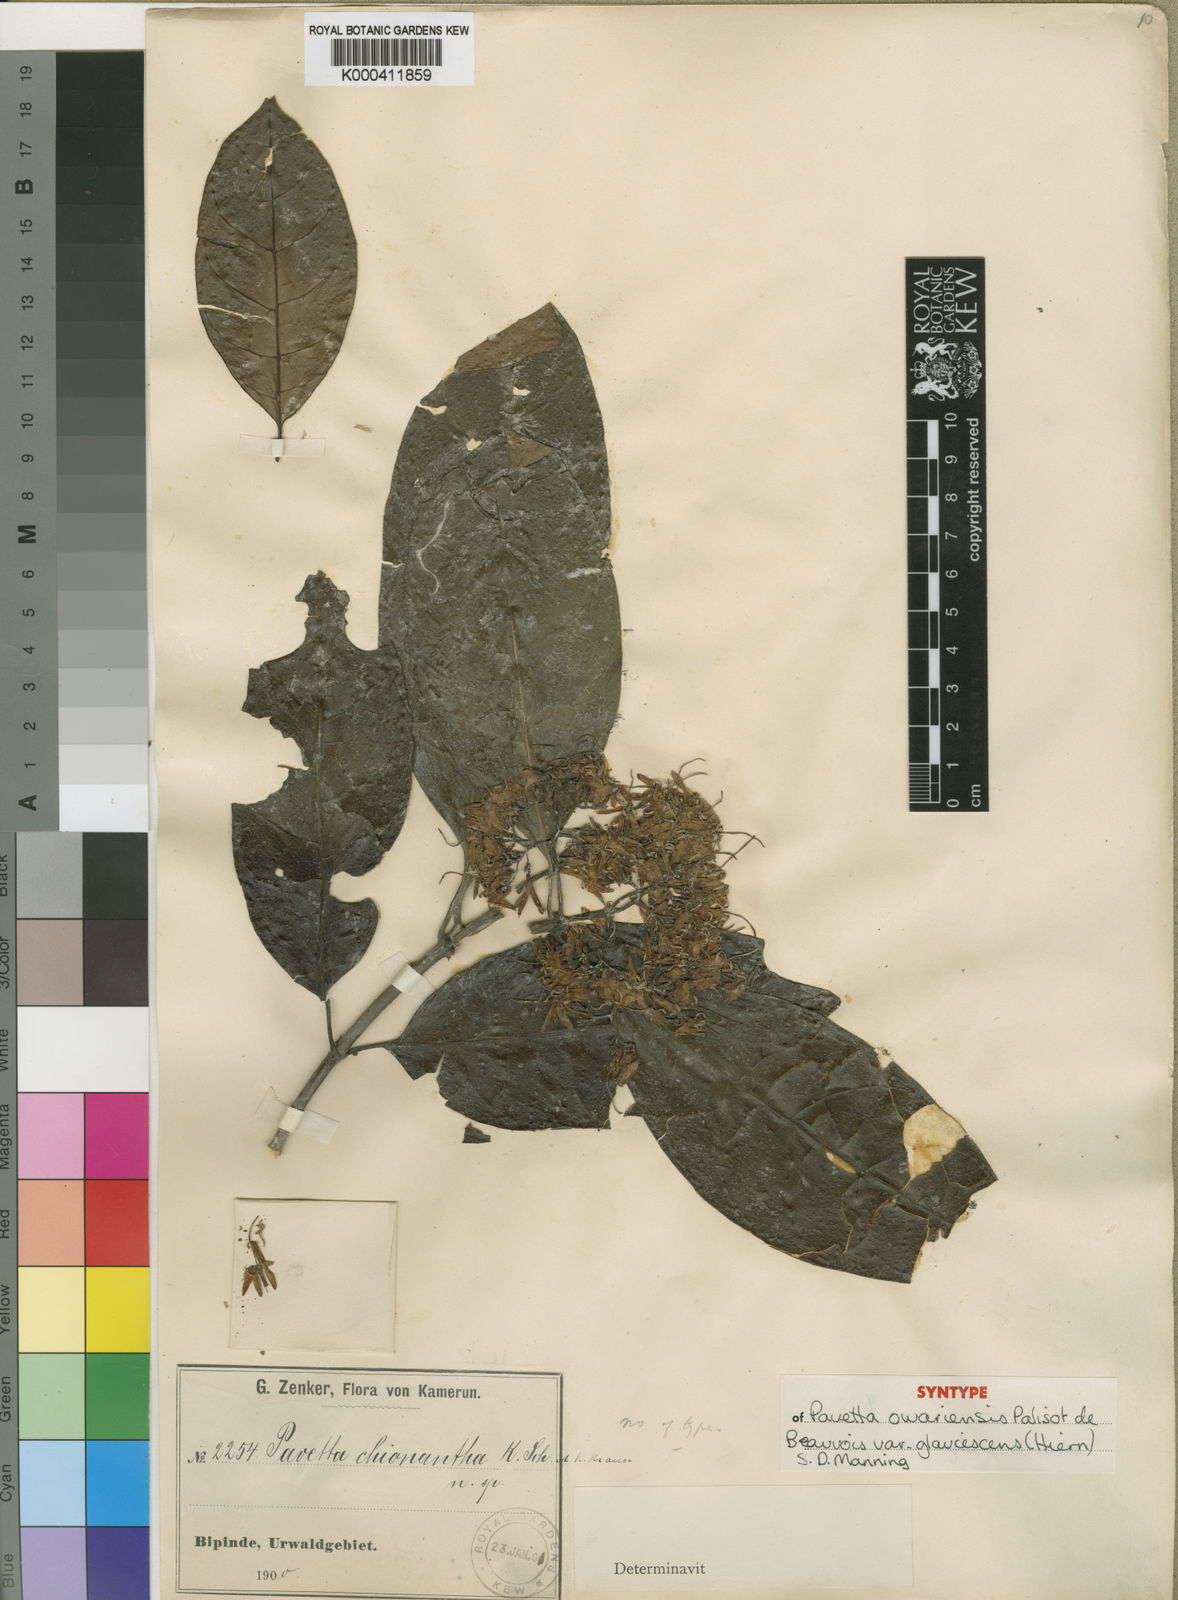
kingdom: Plantae
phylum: Tracheophyta
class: Magnoliopsida
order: Gentianales
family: Rubiaceae
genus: Pavetta
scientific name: Pavetta owariensis
